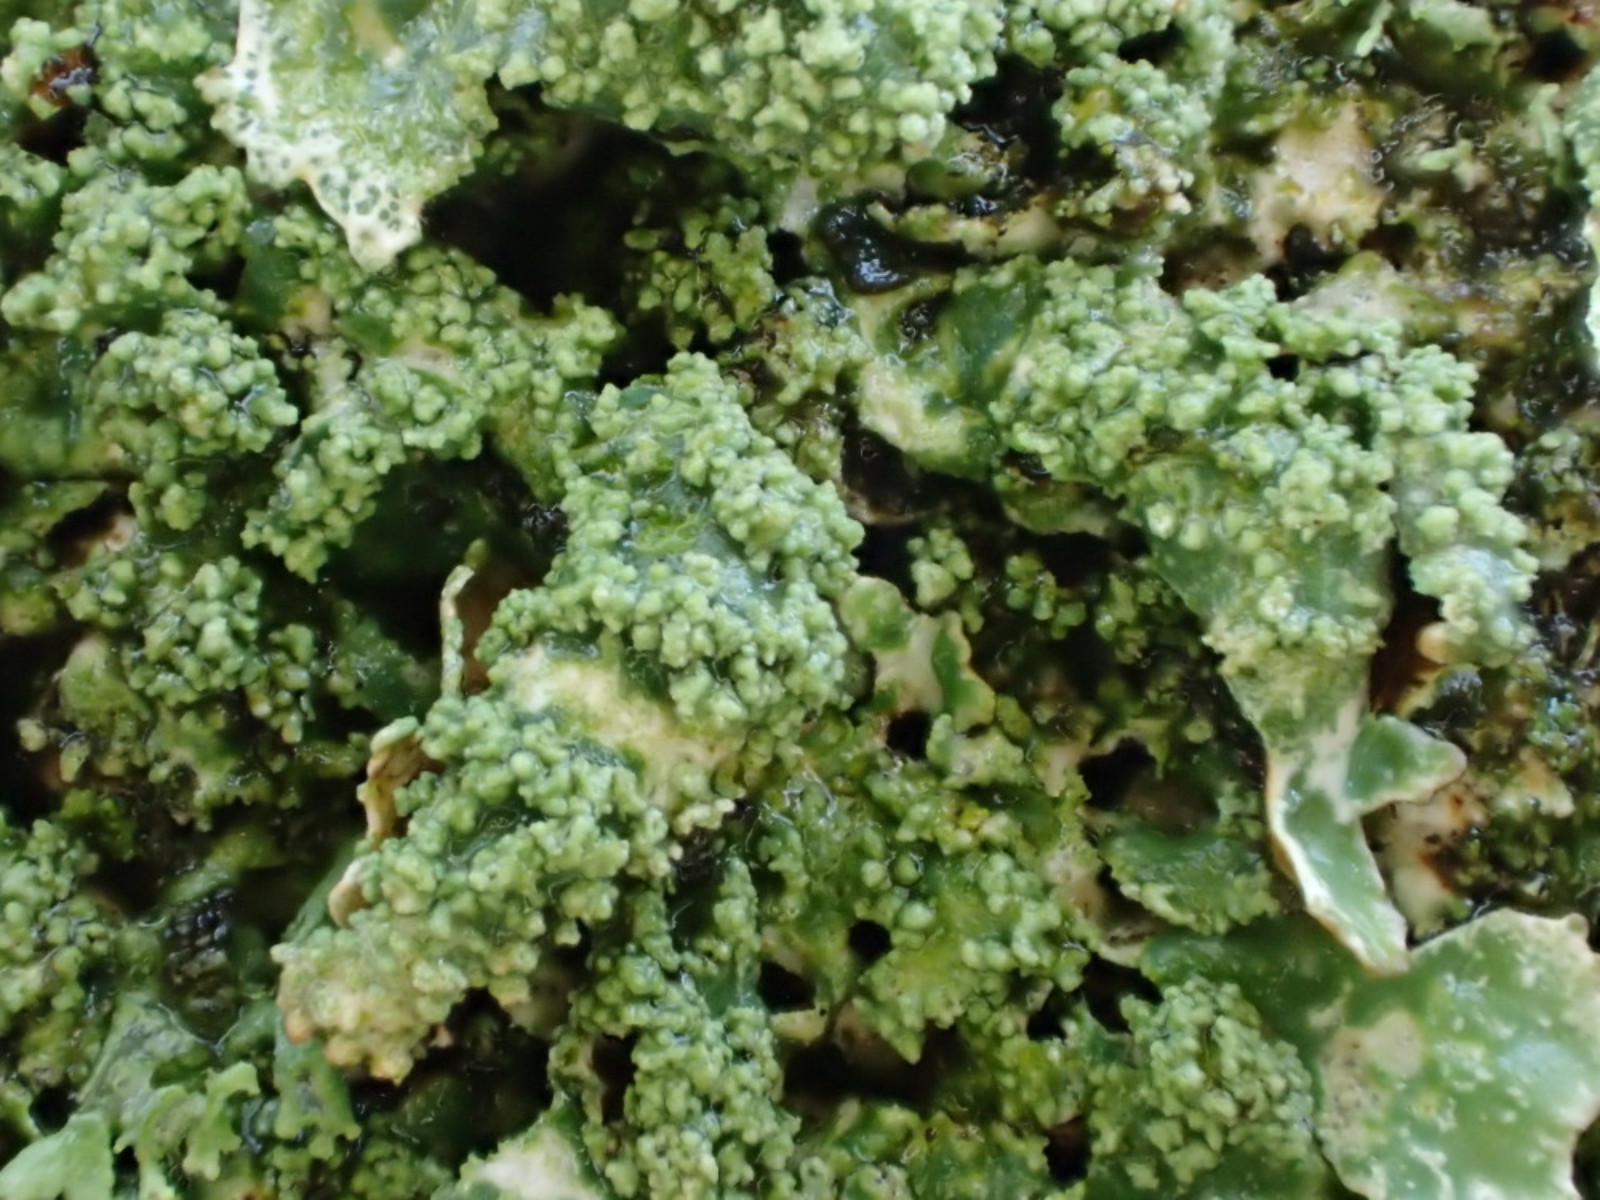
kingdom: Fungi
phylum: Ascomycota
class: Lecanoromycetes
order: Lecanorales
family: Parmeliaceae
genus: Parmelia
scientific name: Parmelia submontana
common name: langlobet skållav
